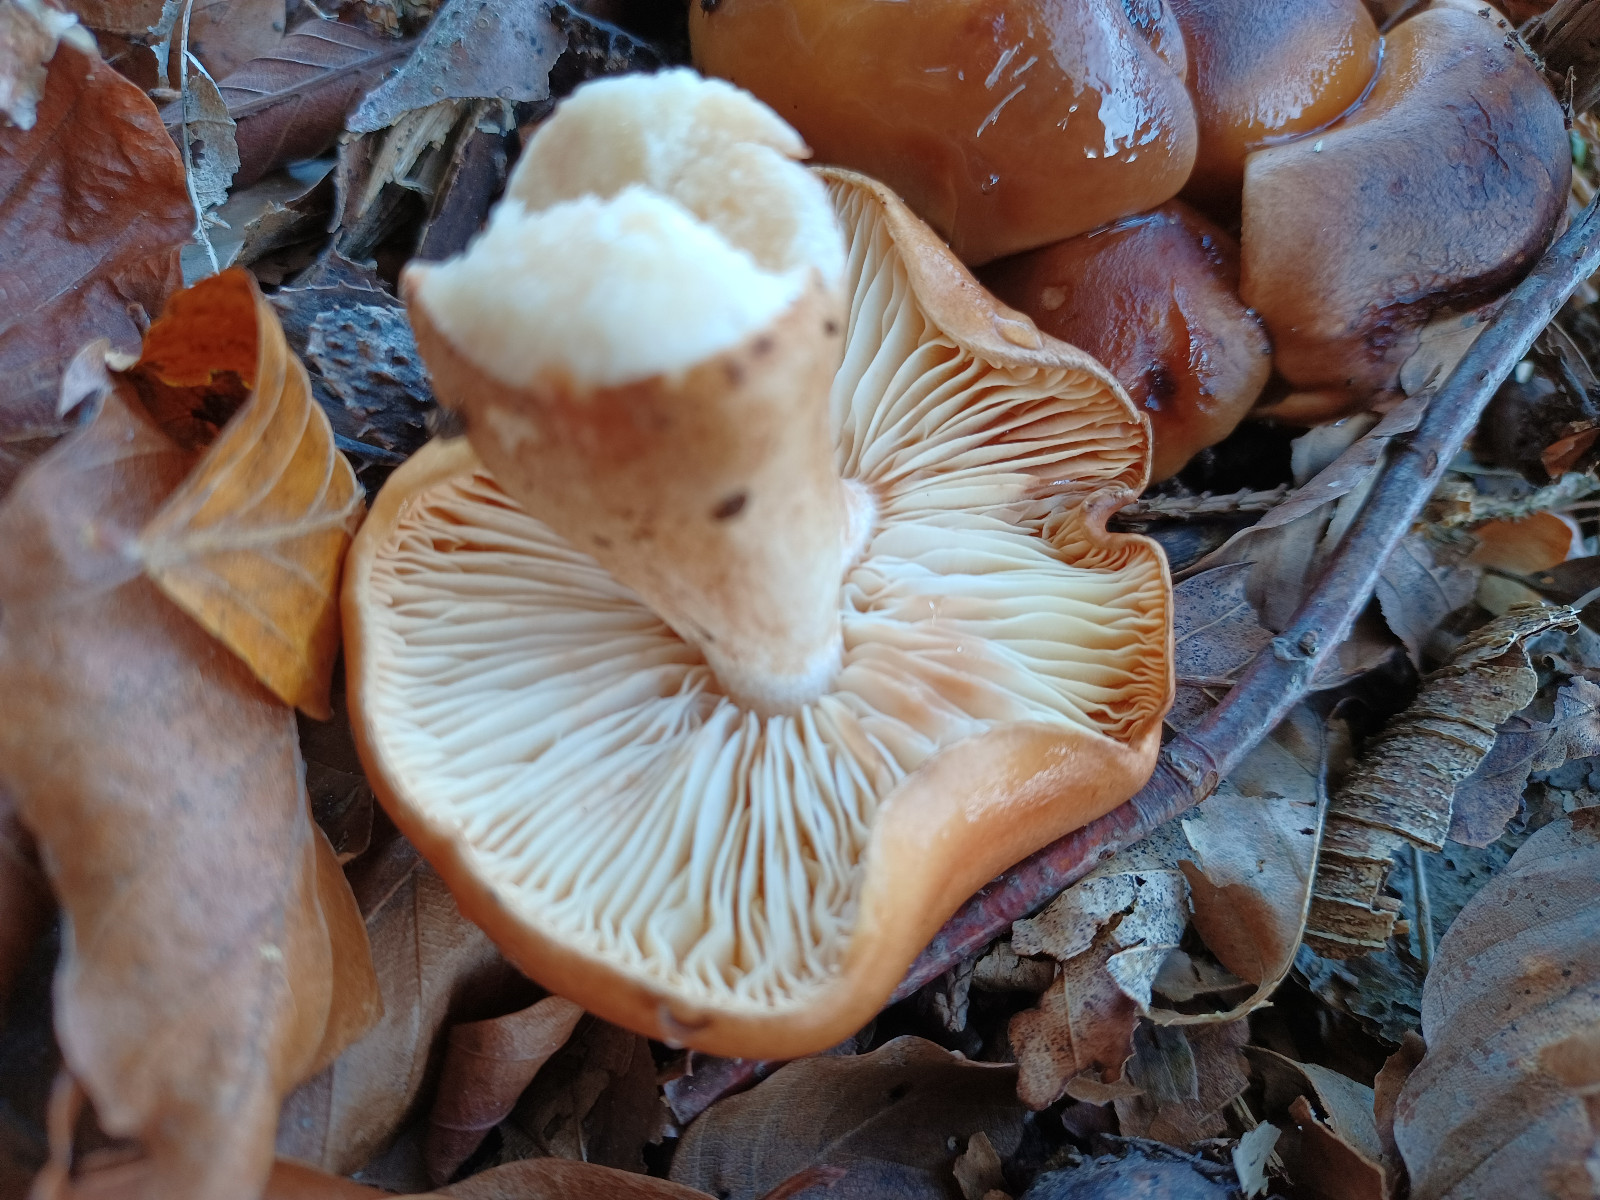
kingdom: Fungi
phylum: Basidiomycota
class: Agaricomycetes
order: Agaricales
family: Tricholomataceae
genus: Tricholoma
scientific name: Tricholoma ustale
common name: sveden ridderhat
